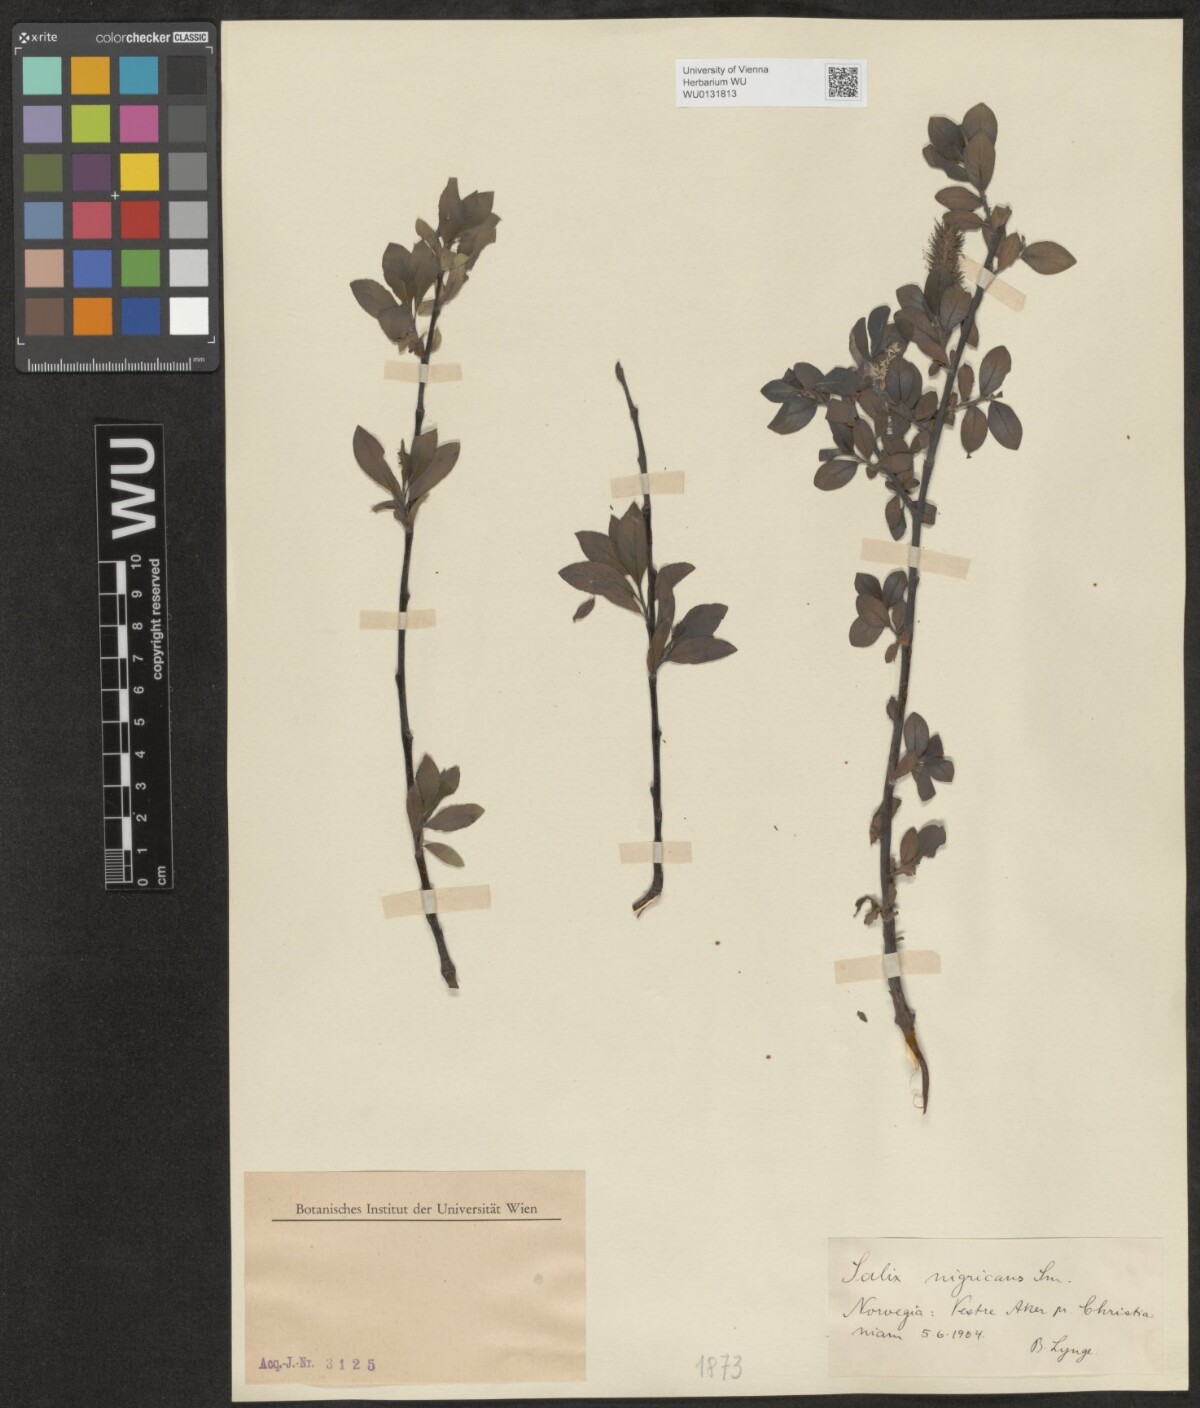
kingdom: Plantae
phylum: Tracheophyta
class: Magnoliopsida
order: Malpighiales
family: Salicaceae
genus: Salix
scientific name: Salix myrsinifolia
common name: Dark-leaved willow
